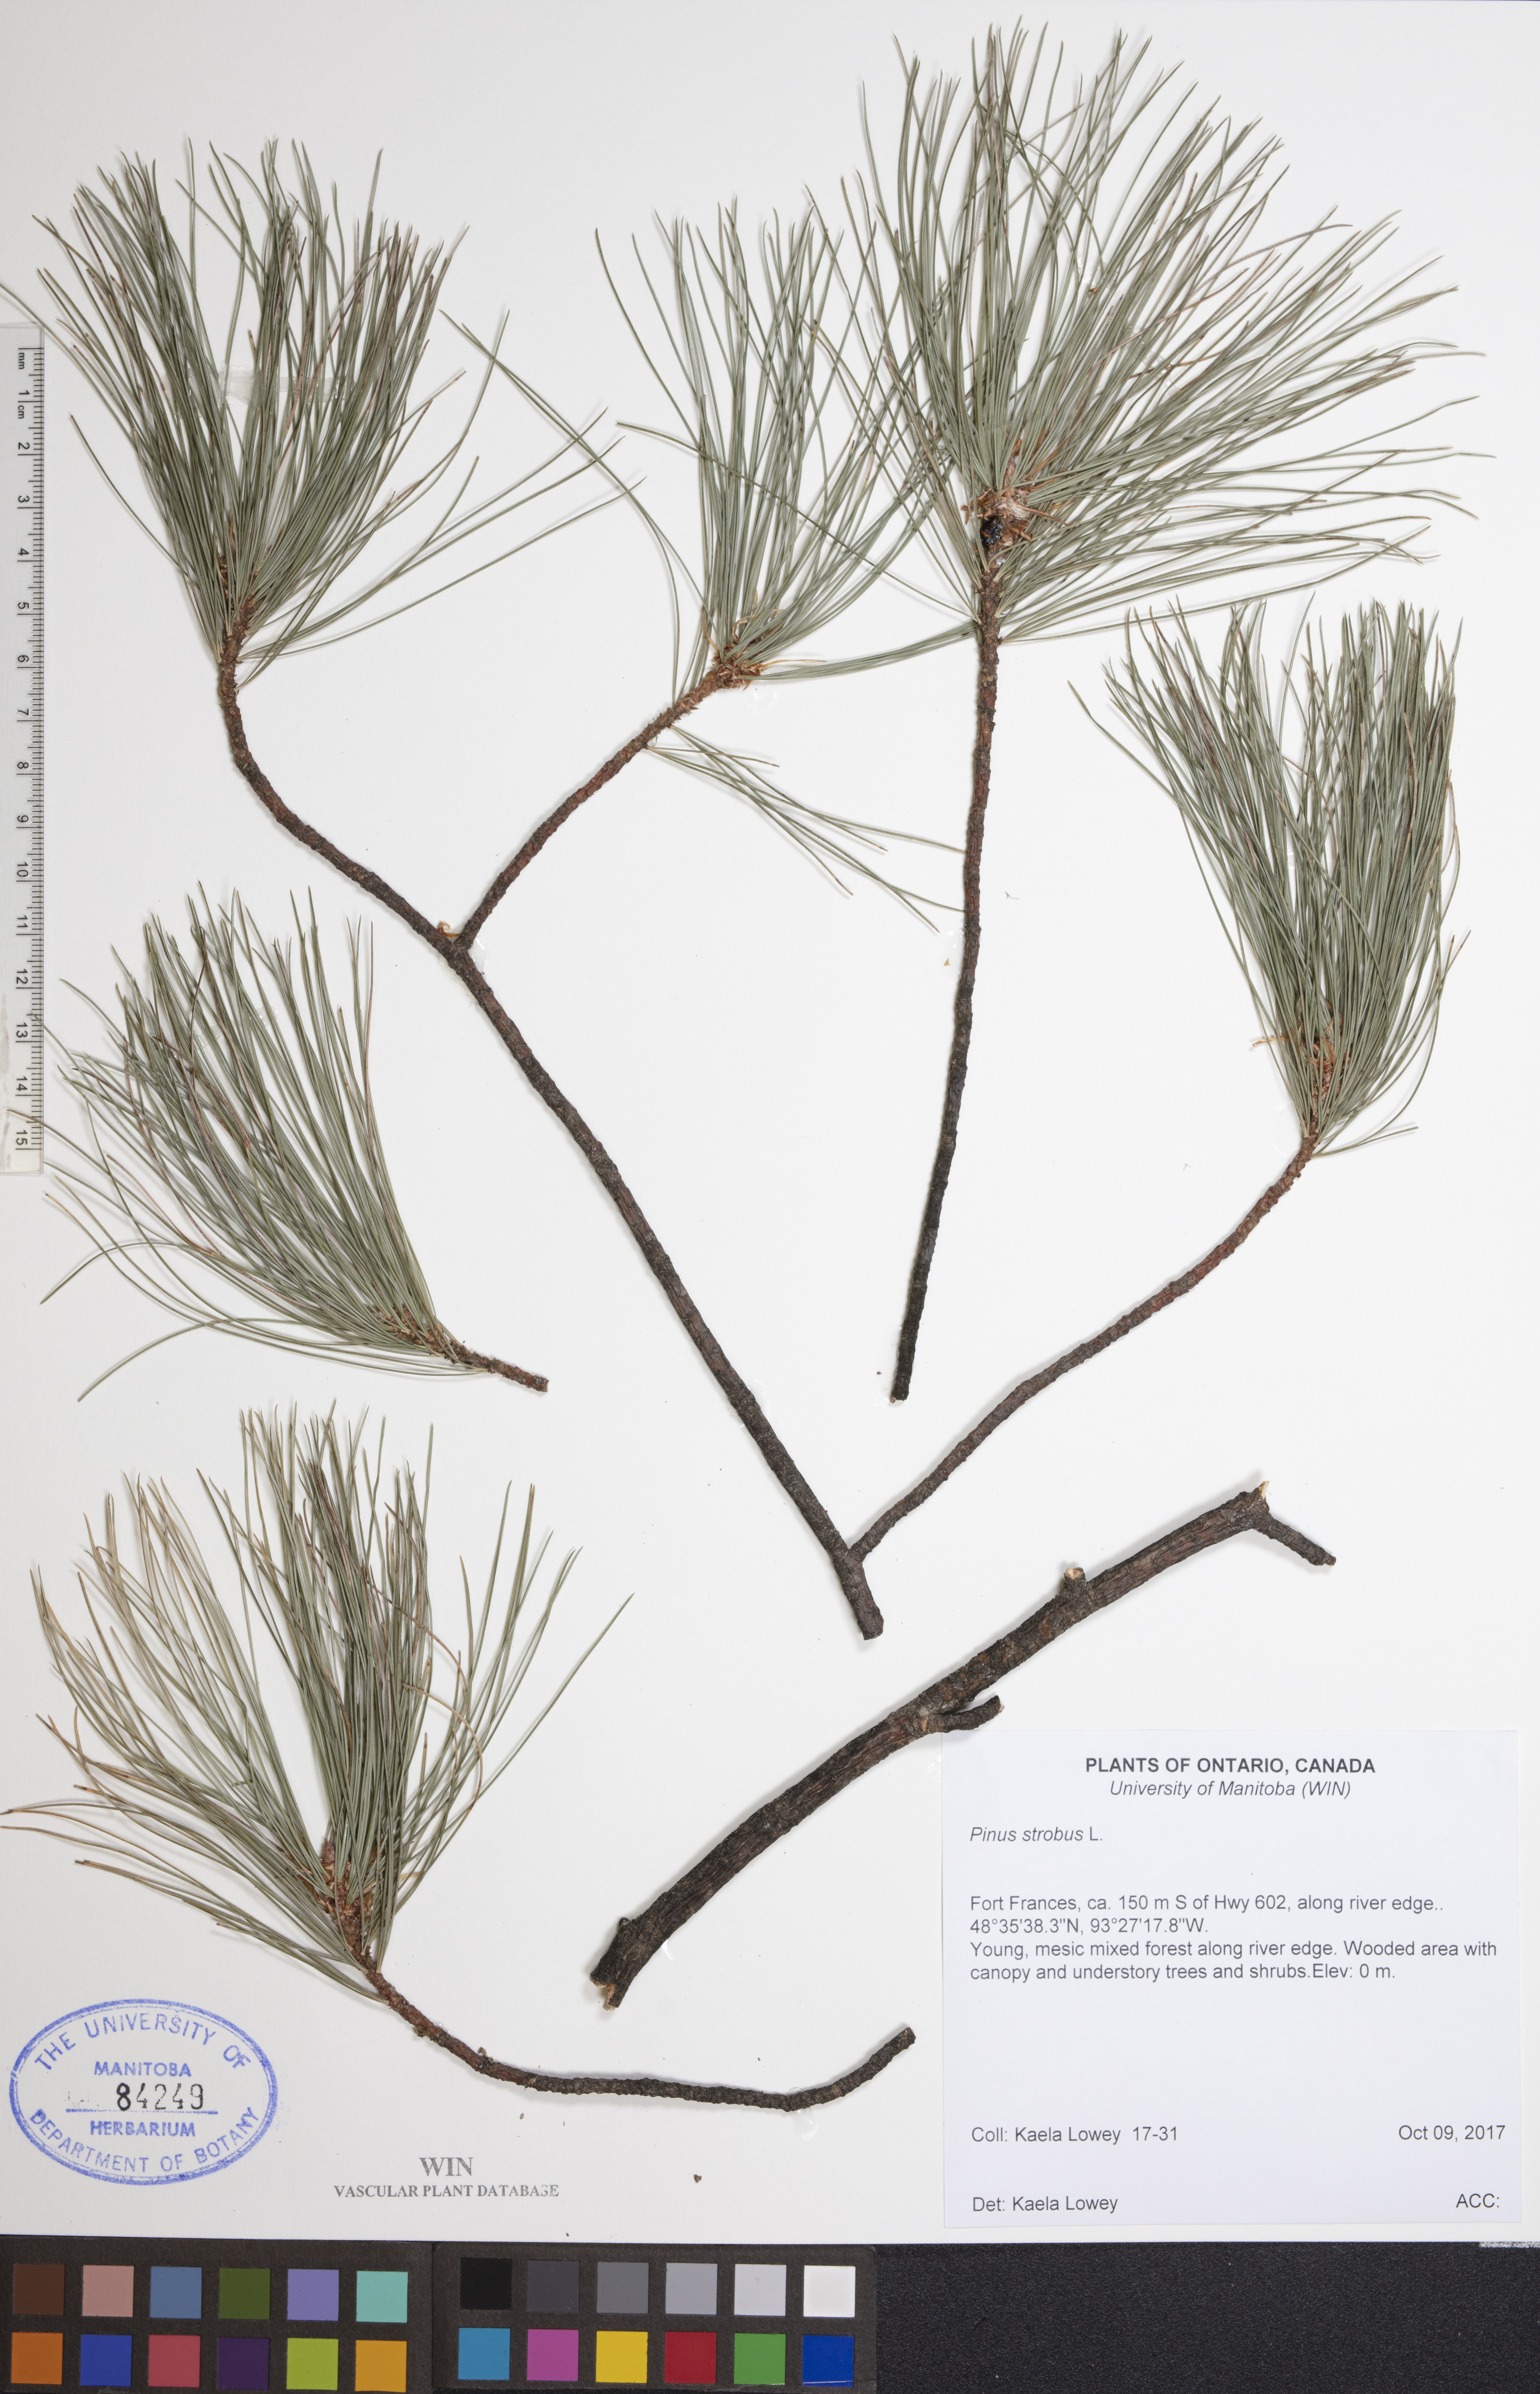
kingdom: Plantae
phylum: Tracheophyta
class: Pinopsida
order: Pinales
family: Pinaceae
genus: Pinus
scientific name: Pinus strobus
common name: Weymouth pine
